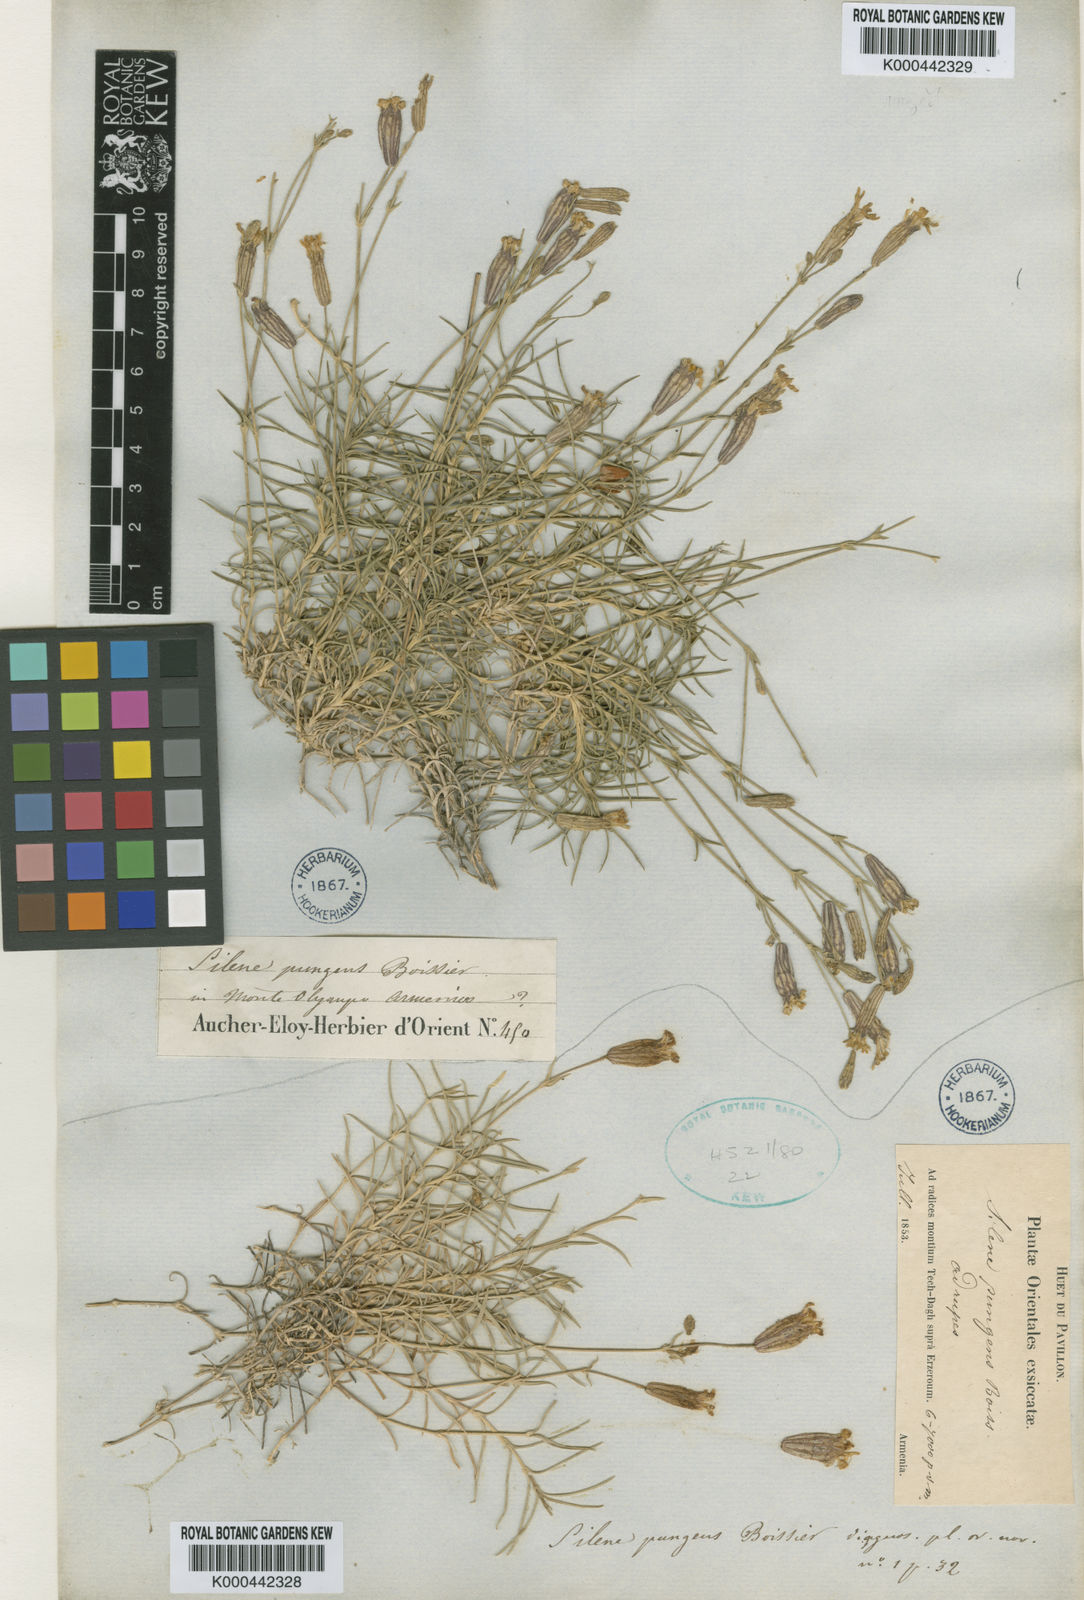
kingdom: Plantae
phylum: Tracheophyta
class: Magnoliopsida
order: Caryophyllales
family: Caryophyllaceae
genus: Silene
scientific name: Silene pungens
